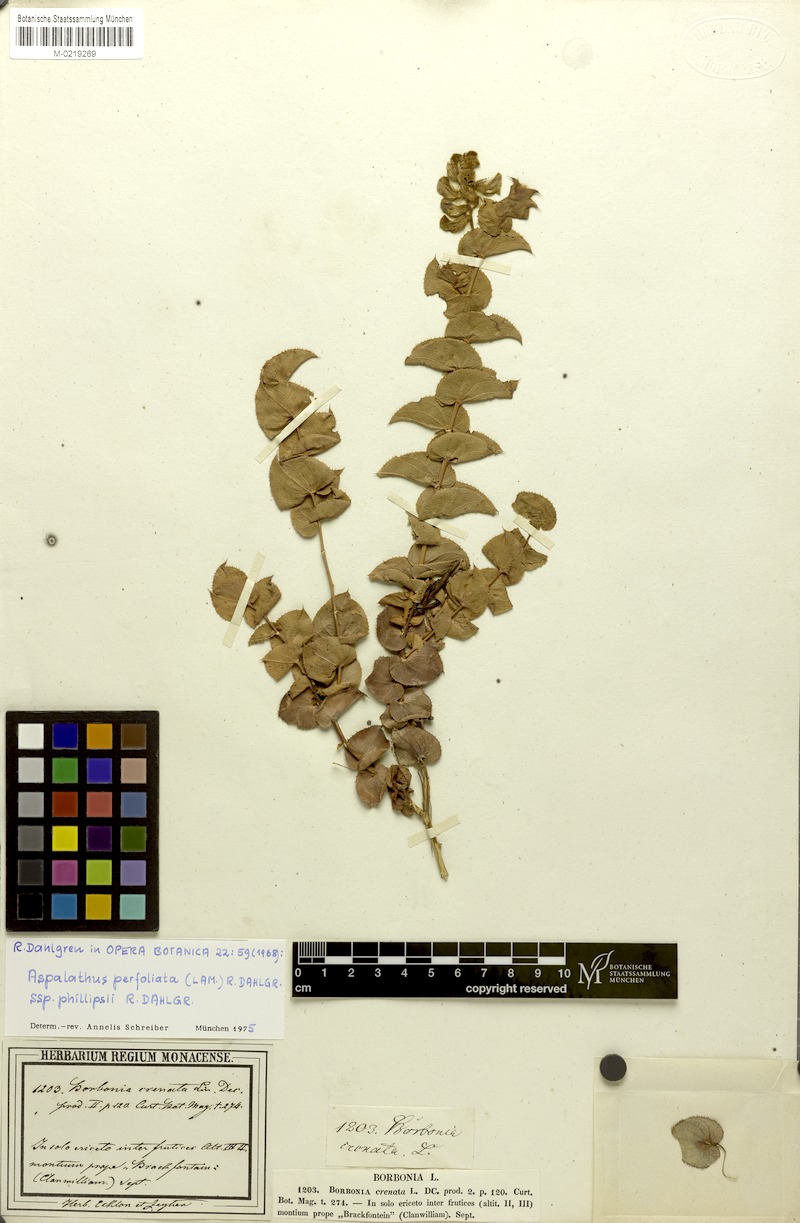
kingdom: Plantae
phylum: Tracheophyta
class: Magnoliopsida
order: Fabales
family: Fabaceae
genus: Aspalathus
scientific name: Aspalathus perfoliata
